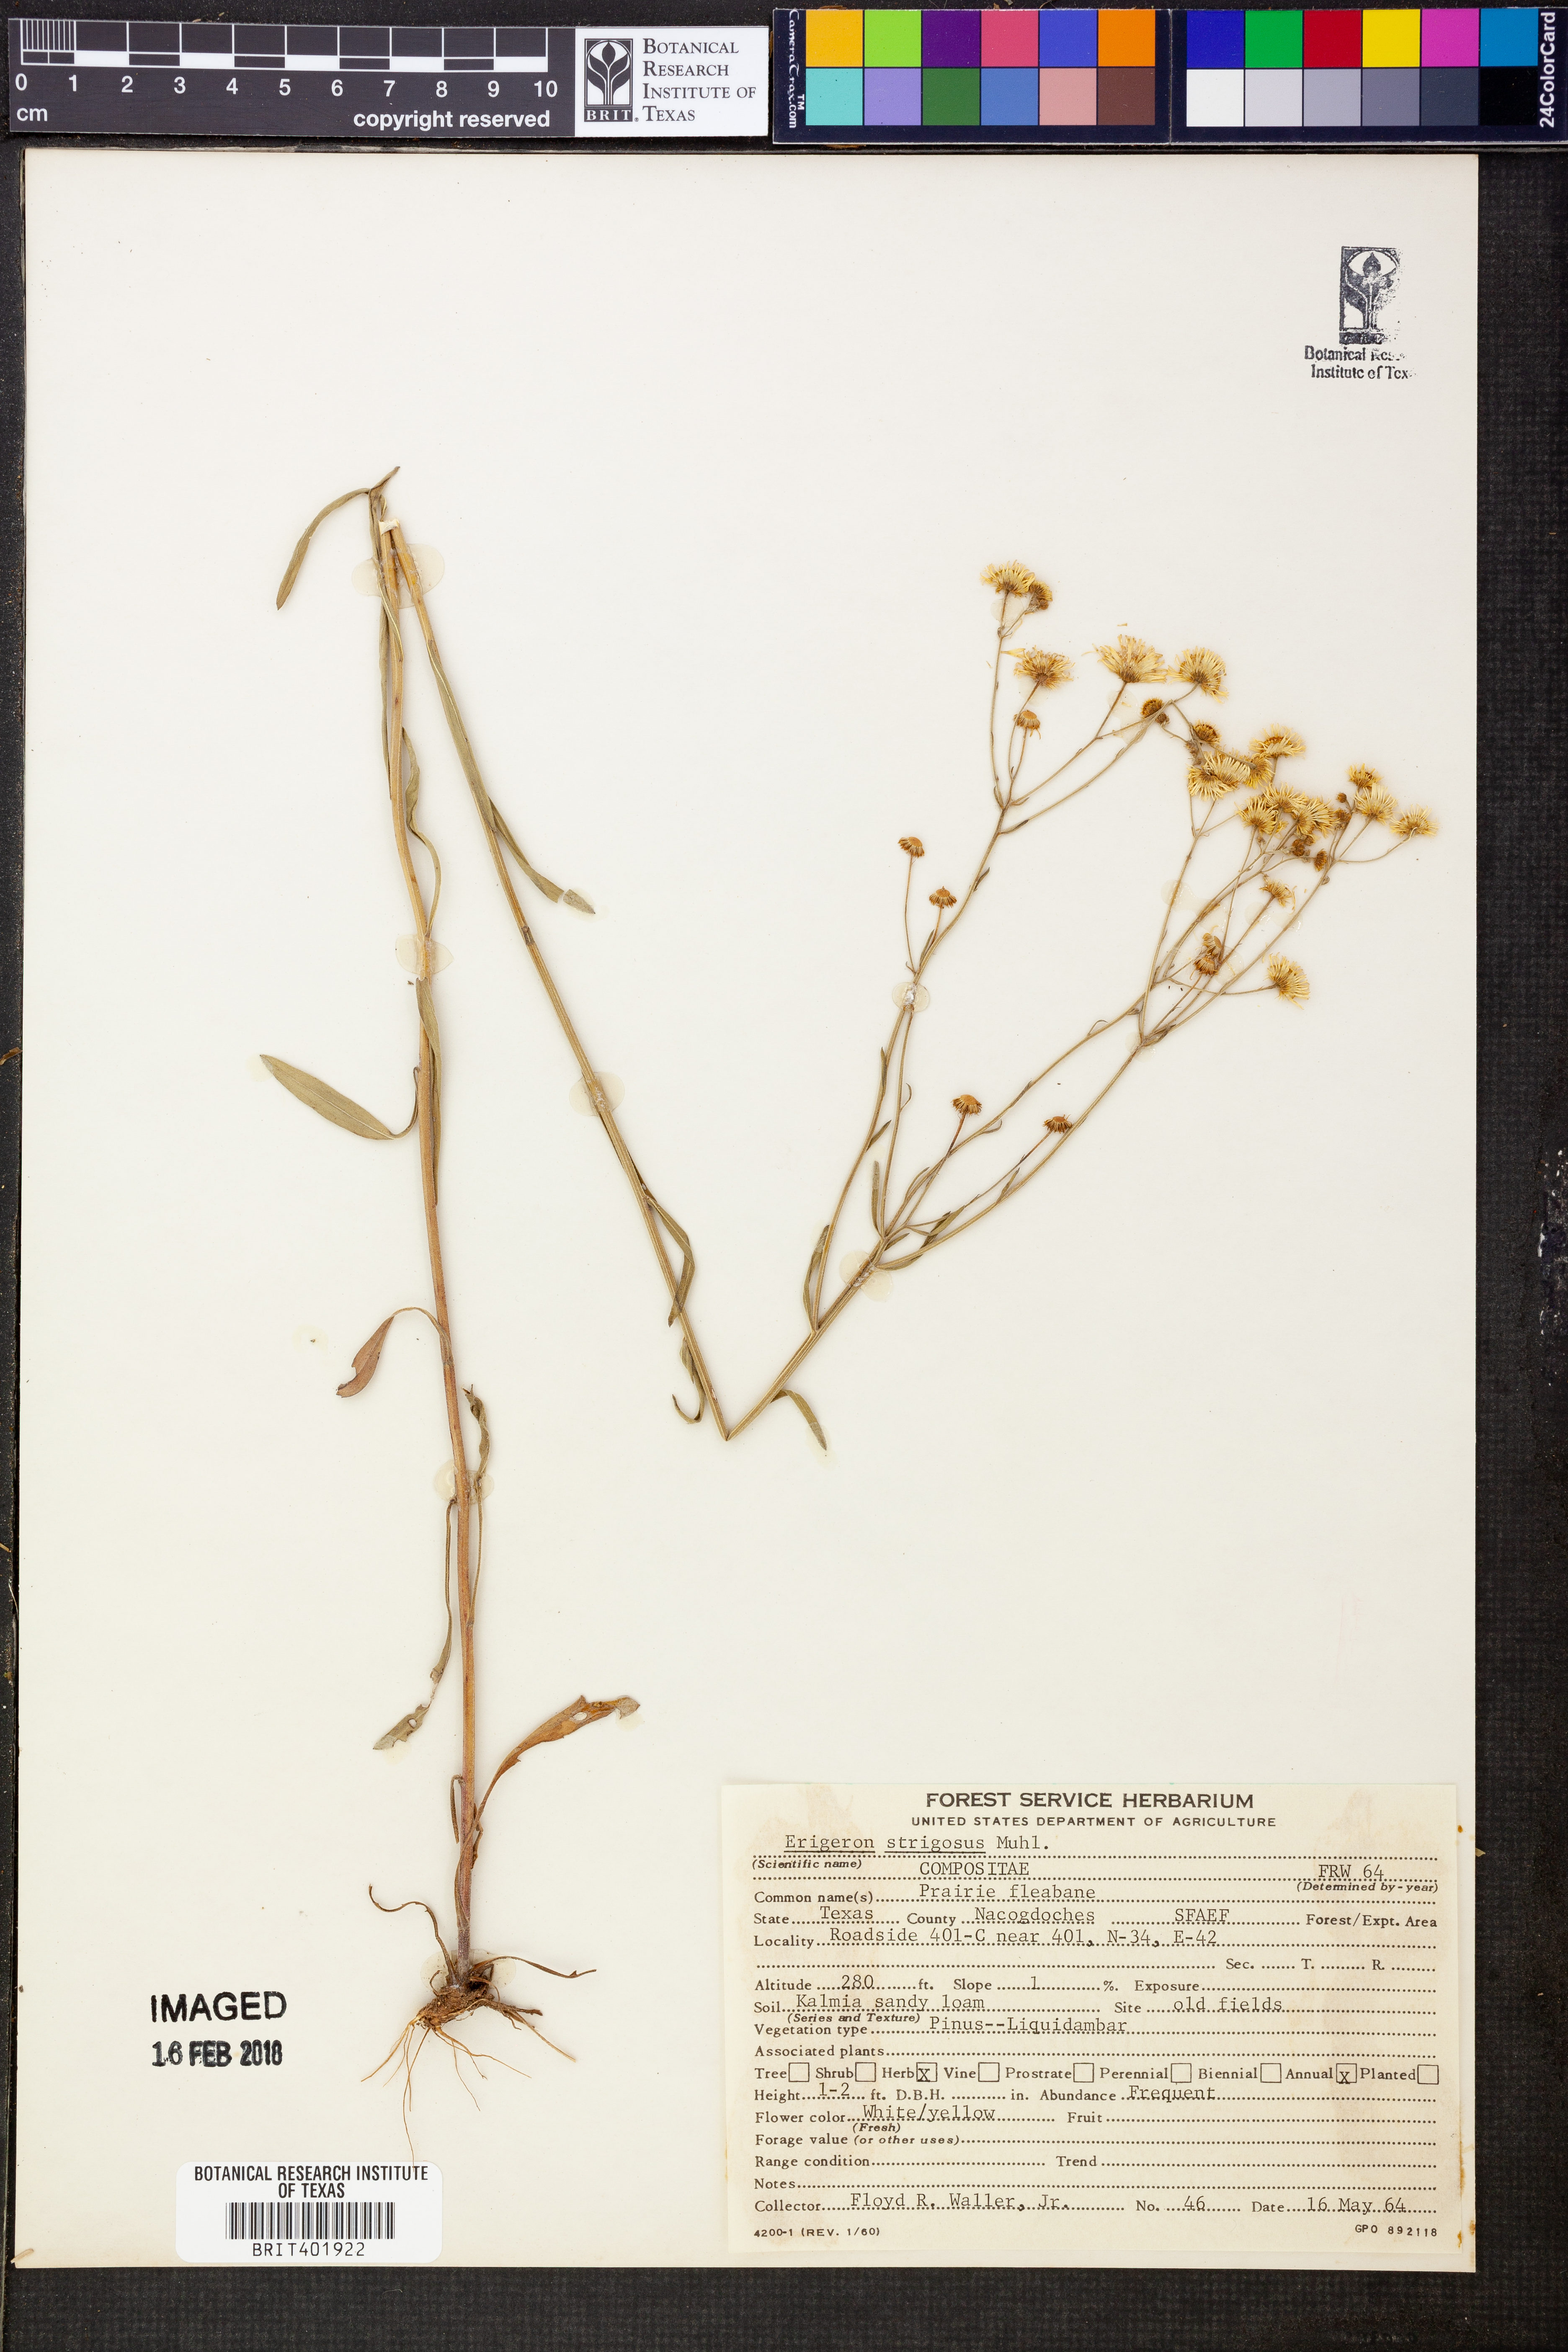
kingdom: Plantae
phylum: Tracheophyta
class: Magnoliopsida
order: Asterales
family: Asteraceae
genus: Erigeron
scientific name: Erigeron strigosus
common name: Common eastern fleabane
